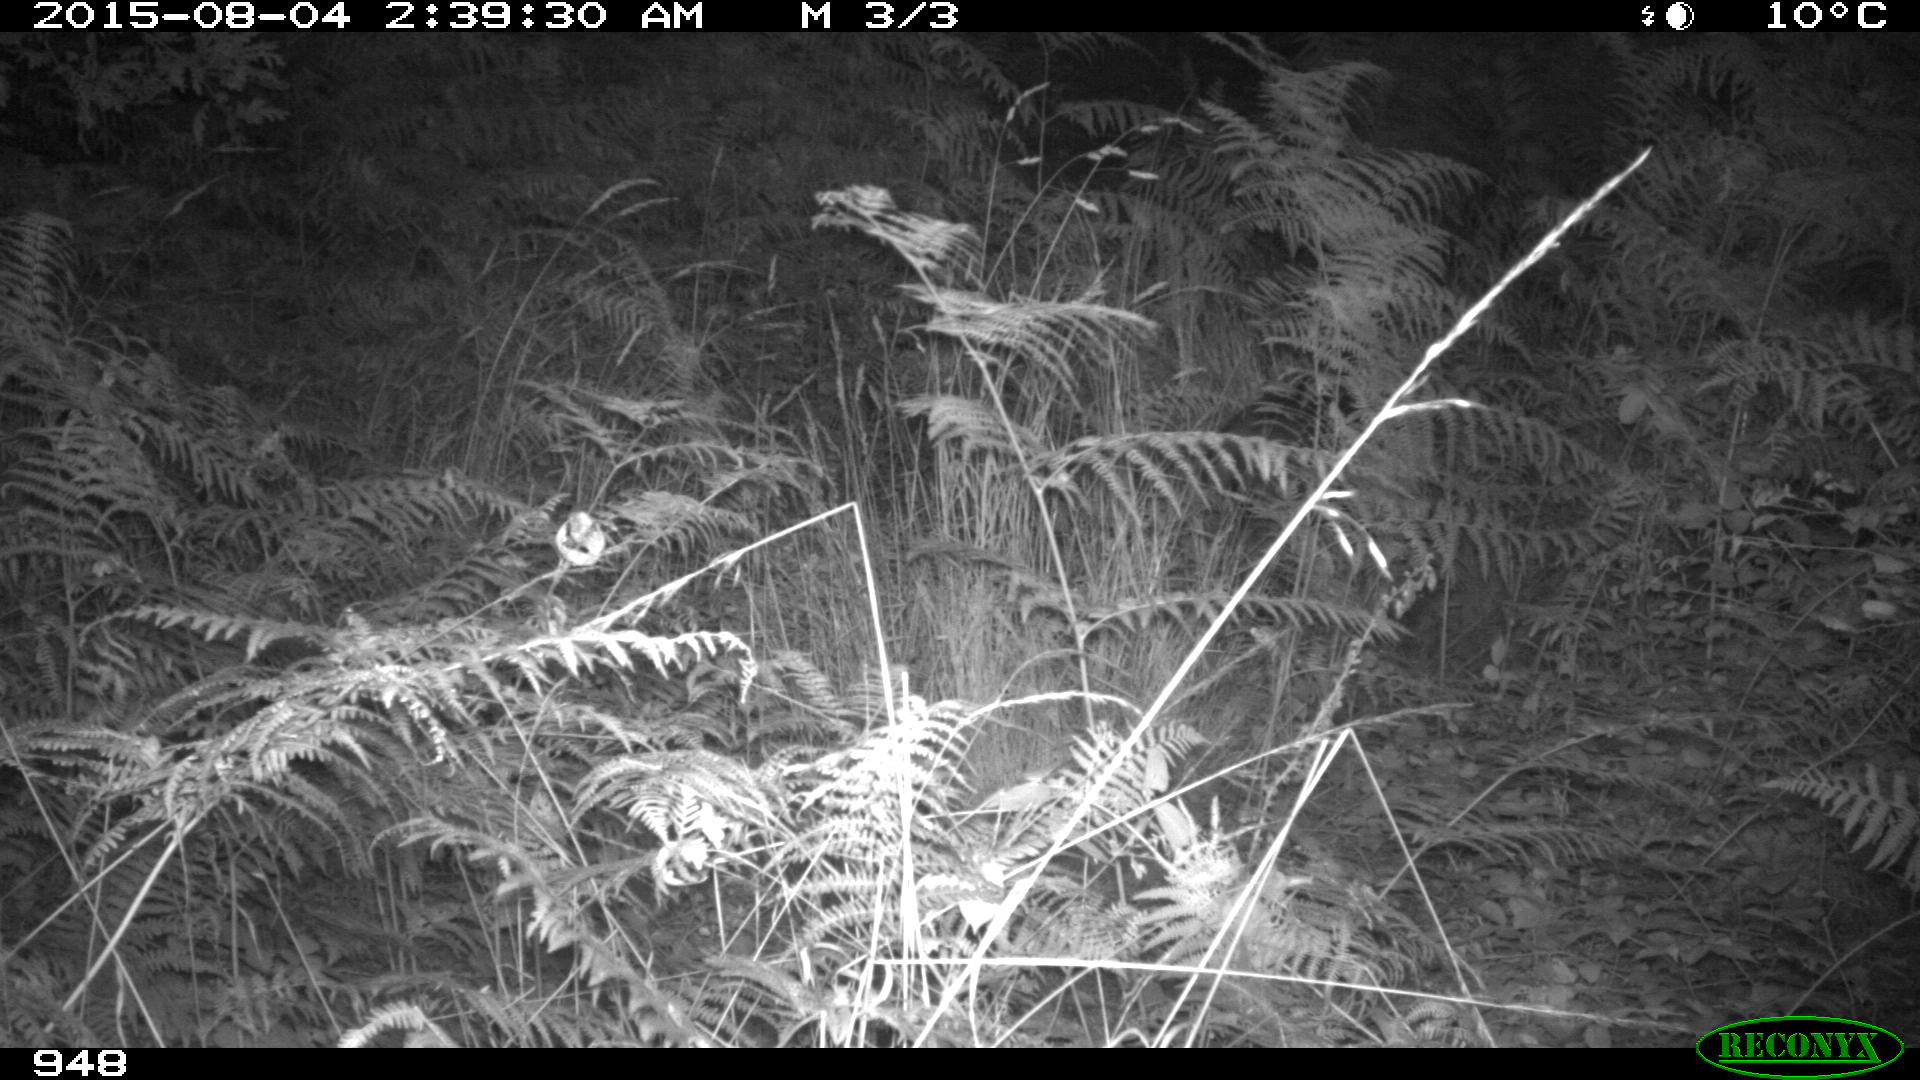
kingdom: Animalia
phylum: Chordata
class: Mammalia
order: Artiodactyla
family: Suidae
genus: Sus
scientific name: Sus scrofa
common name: Wild boar
